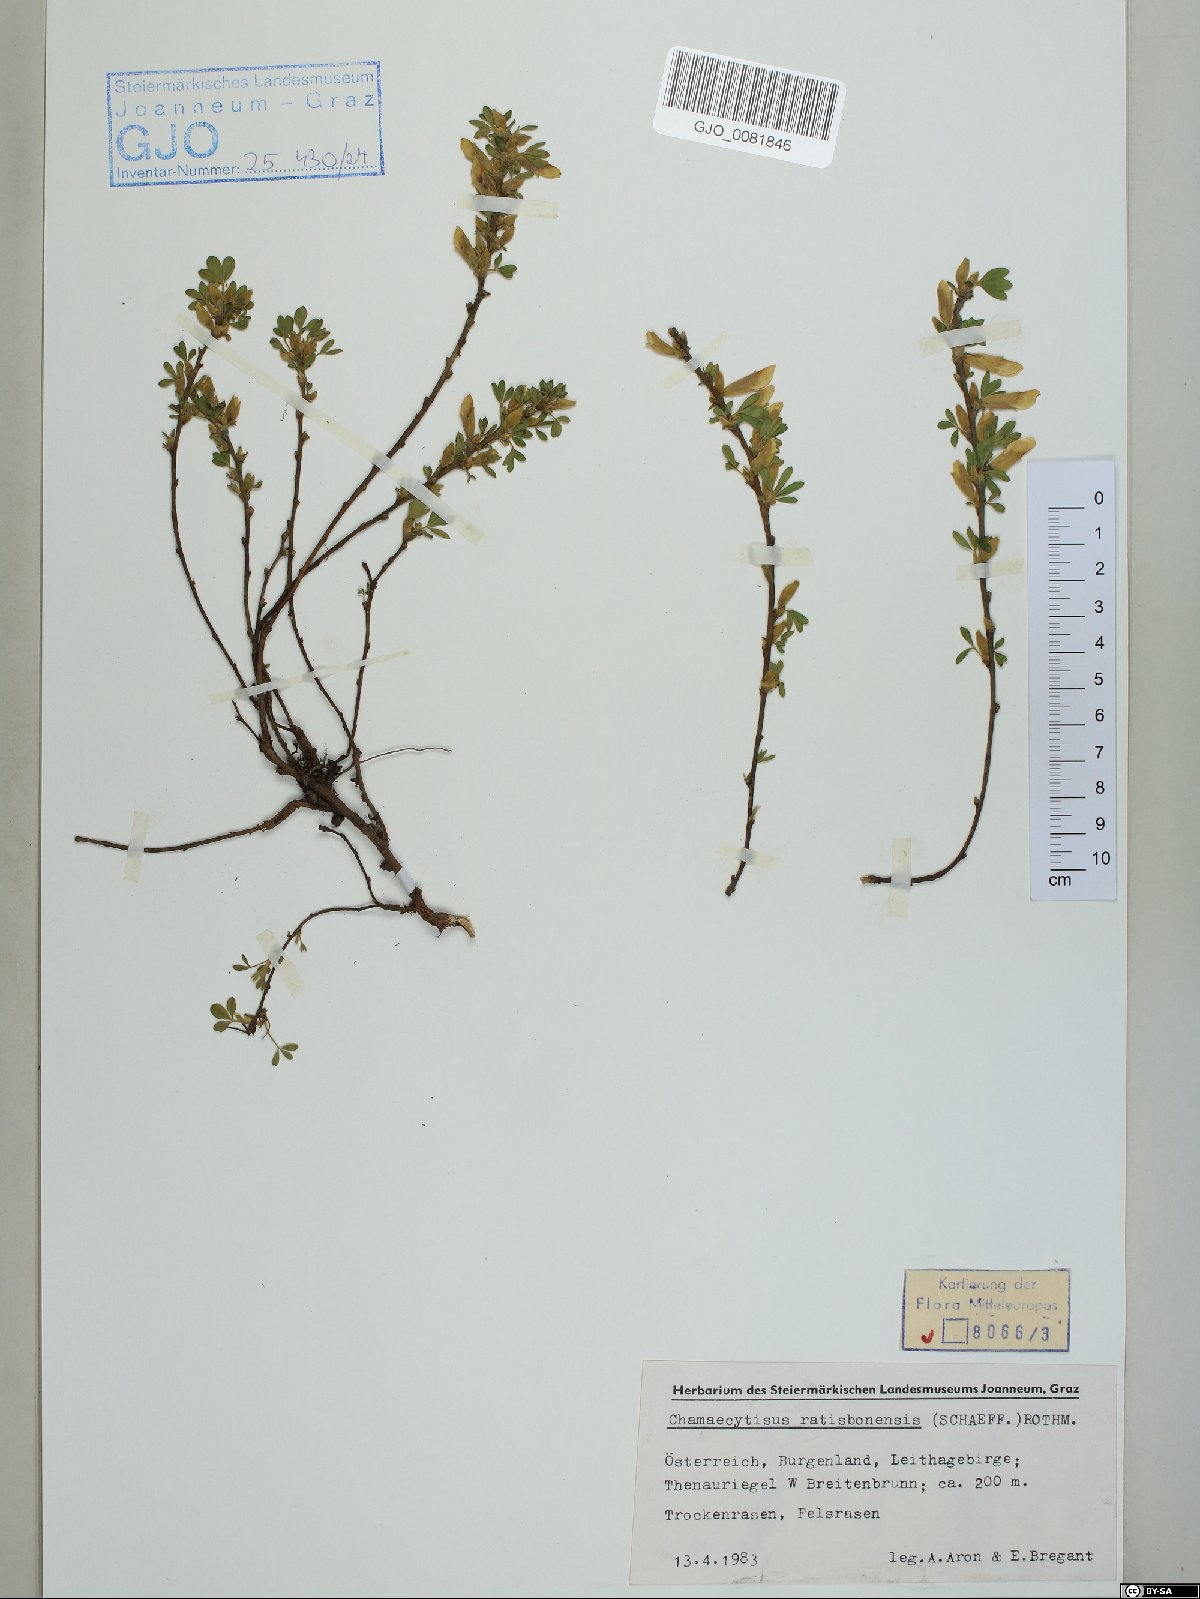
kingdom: Plantae
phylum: Tracheophyta
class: Magnoliopsida
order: Fabales
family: Fabaceae
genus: Chamaecytisus
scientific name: Chamaecytisus ratisbonensis
